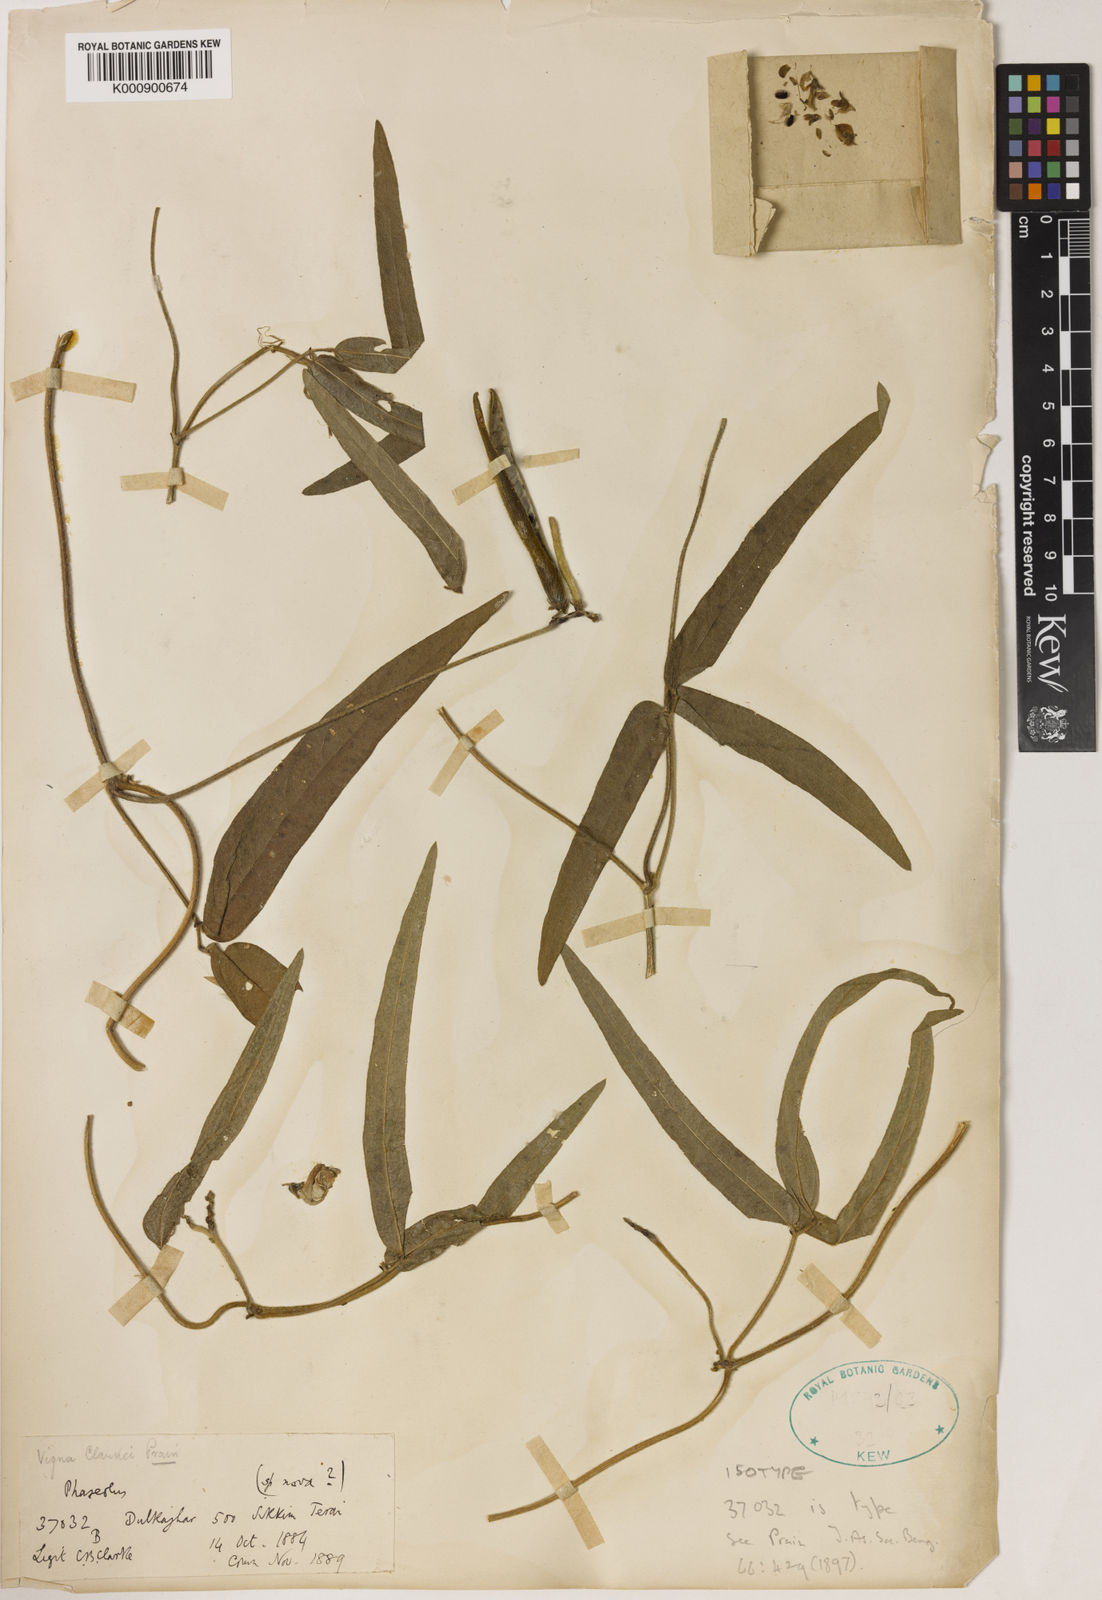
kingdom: Plantae
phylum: Tracheophyta
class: Magnoliopsida
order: Fabales
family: Fabaceae
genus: Vigna
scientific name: Vigna clarkei
